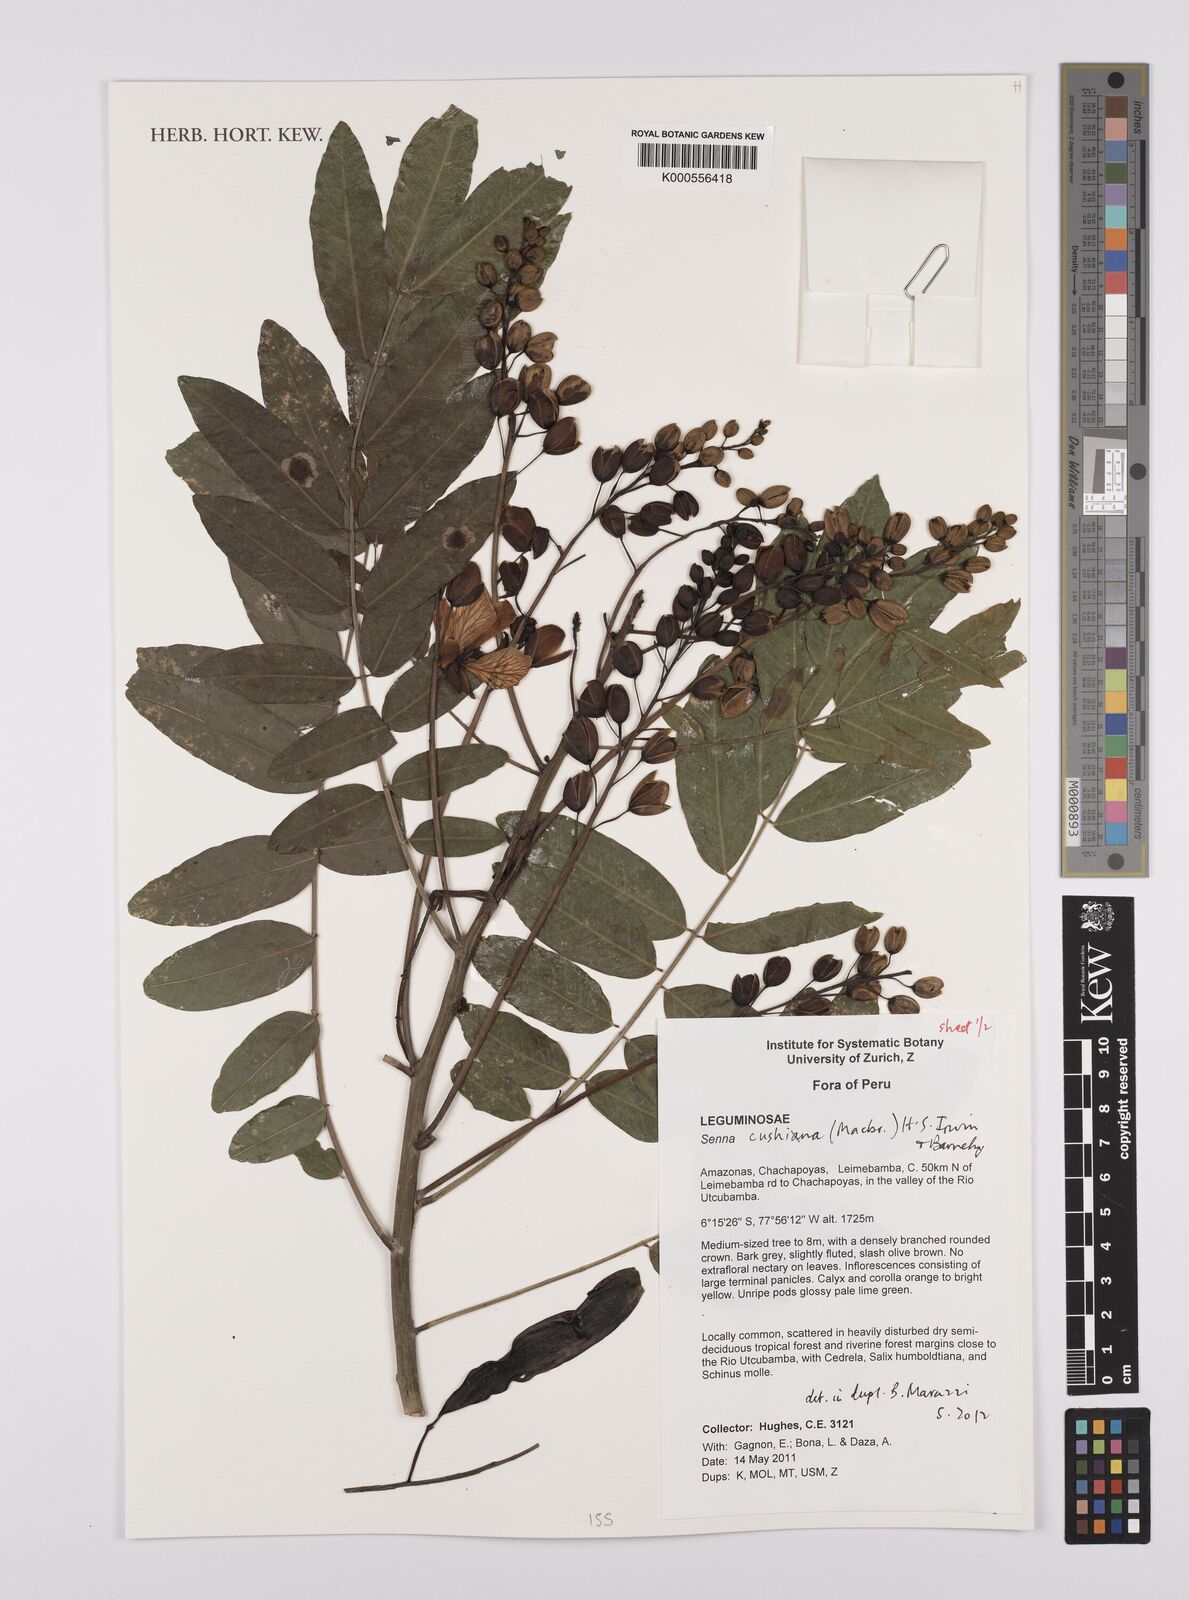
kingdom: Plantae
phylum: Tracheophyta
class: Magnoliopsida
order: Fabales
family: Fabaceae
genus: Senna
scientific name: Senna
